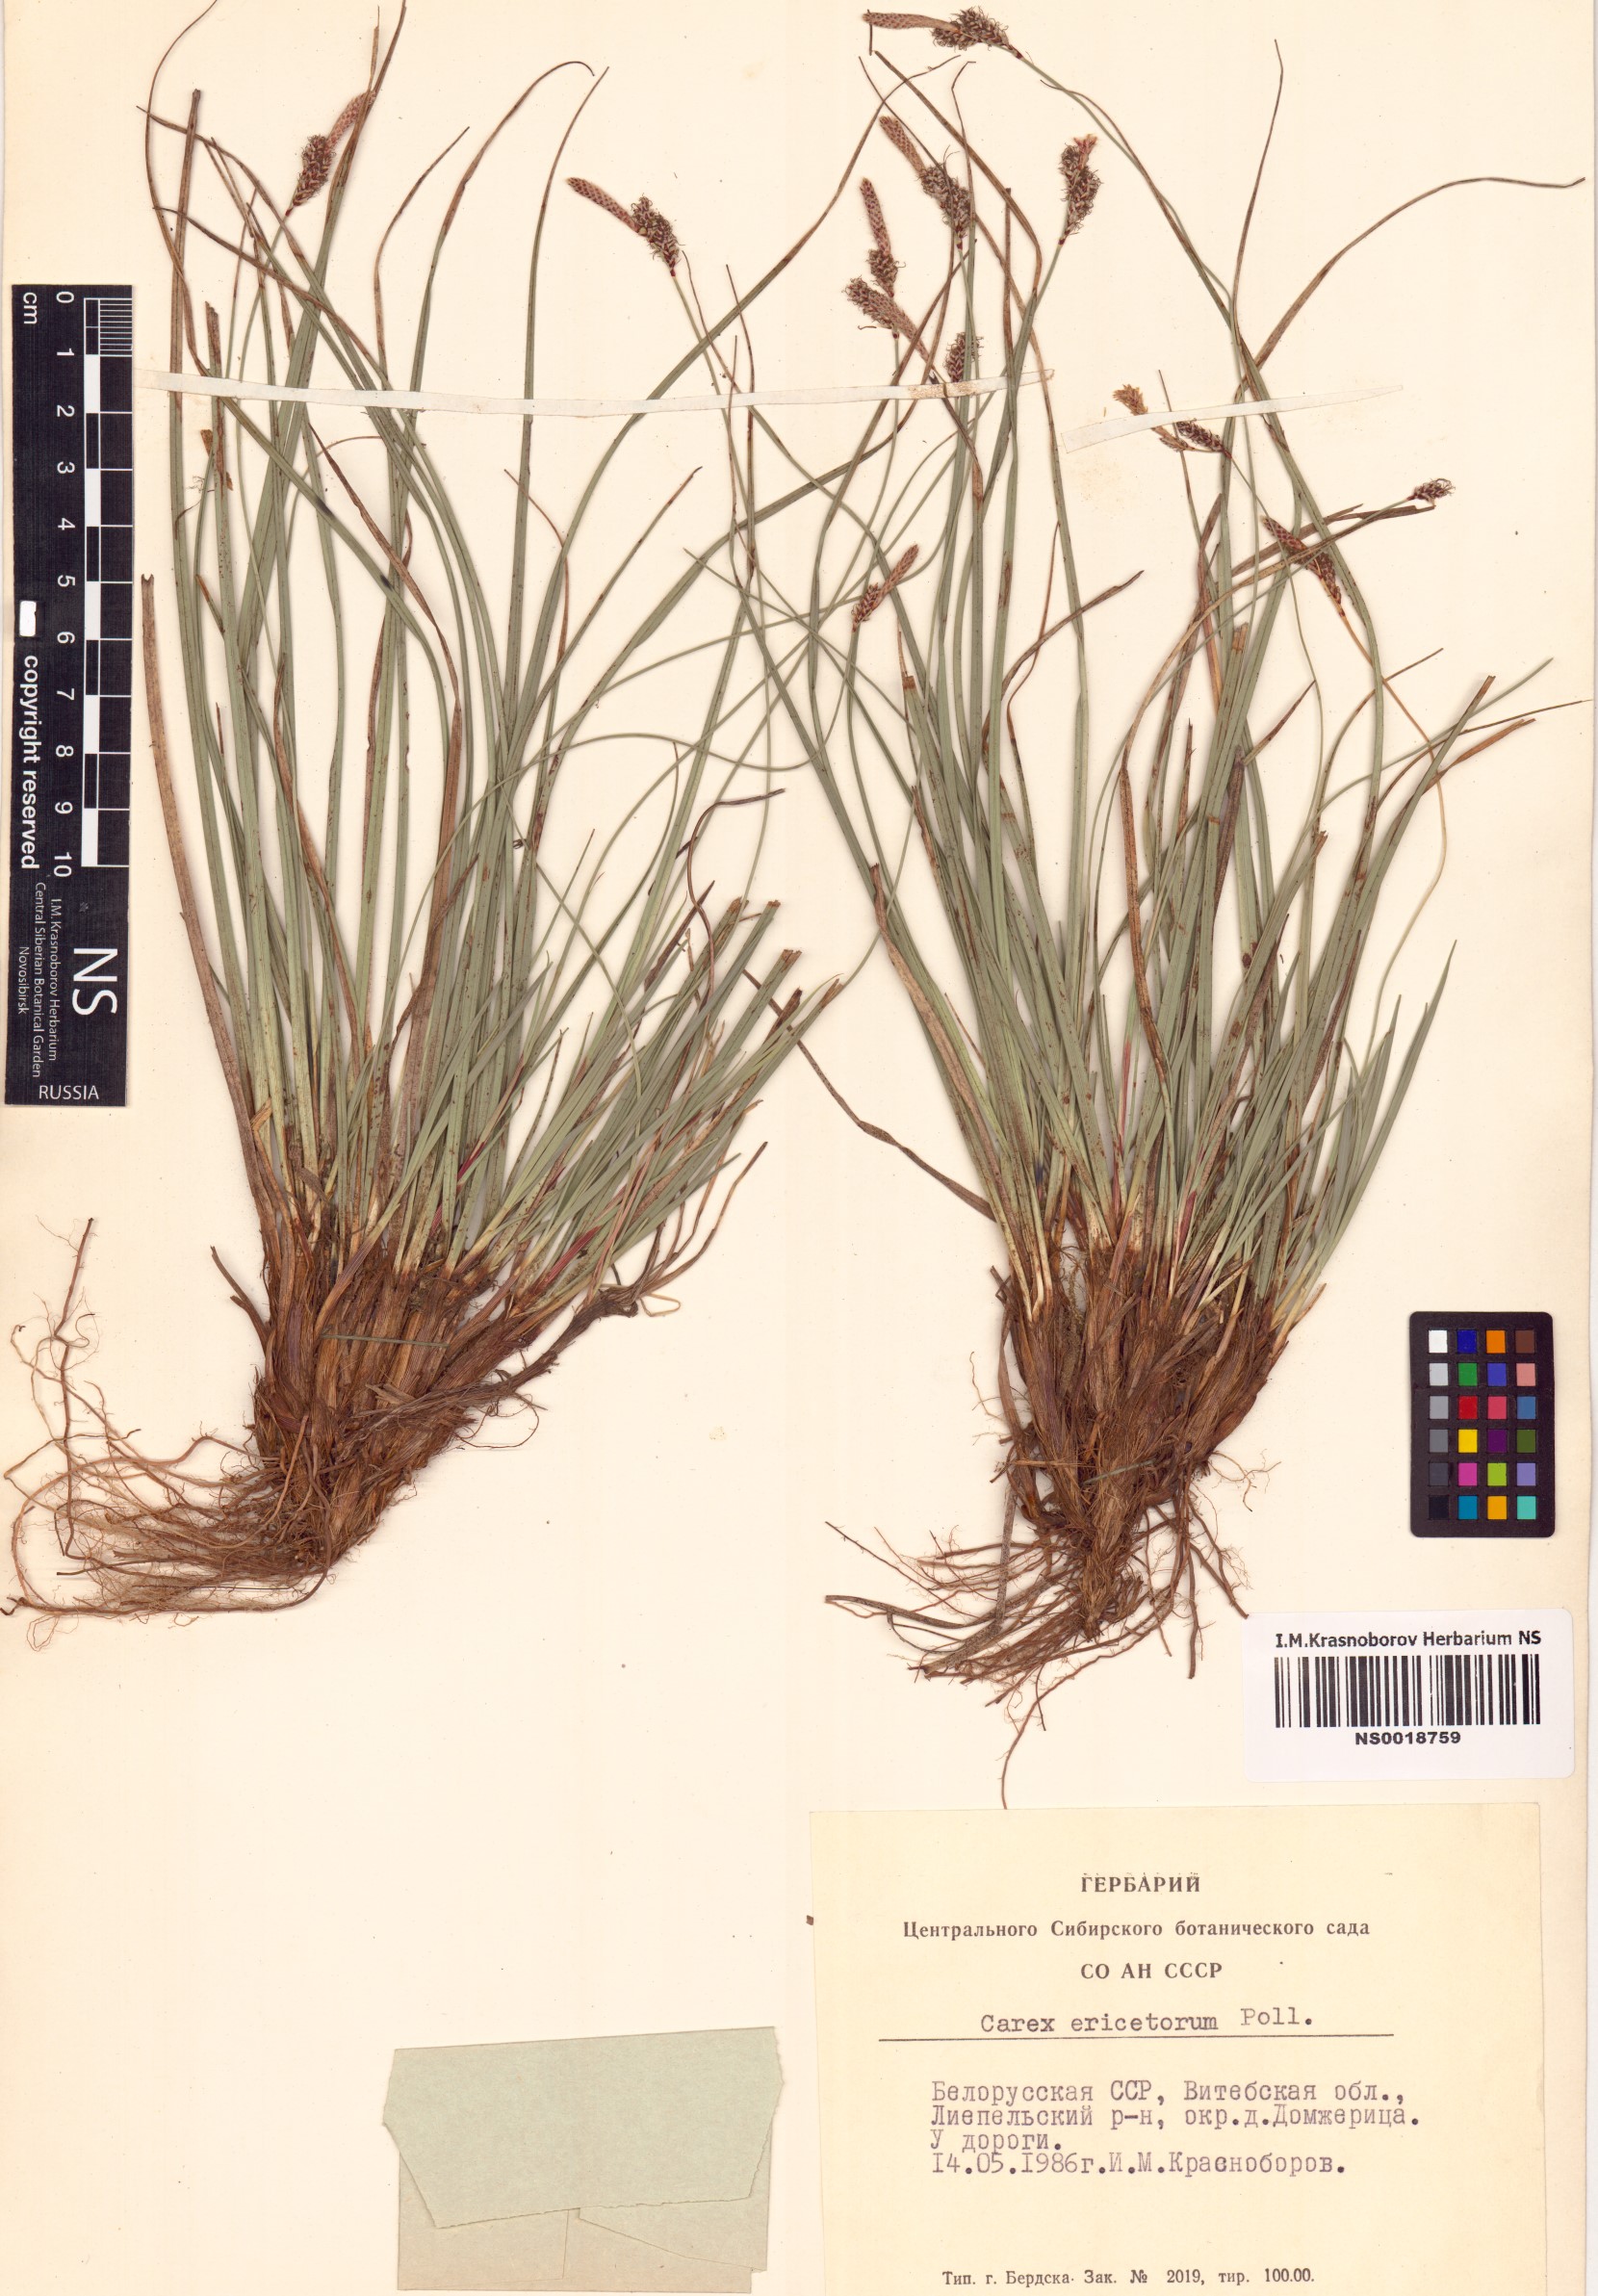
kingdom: Plantae
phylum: Tracheophyta
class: Liliopsida
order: Poales
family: Cyperaceae
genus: Carex
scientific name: Carex ericetorum
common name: Rare spring-sedge
